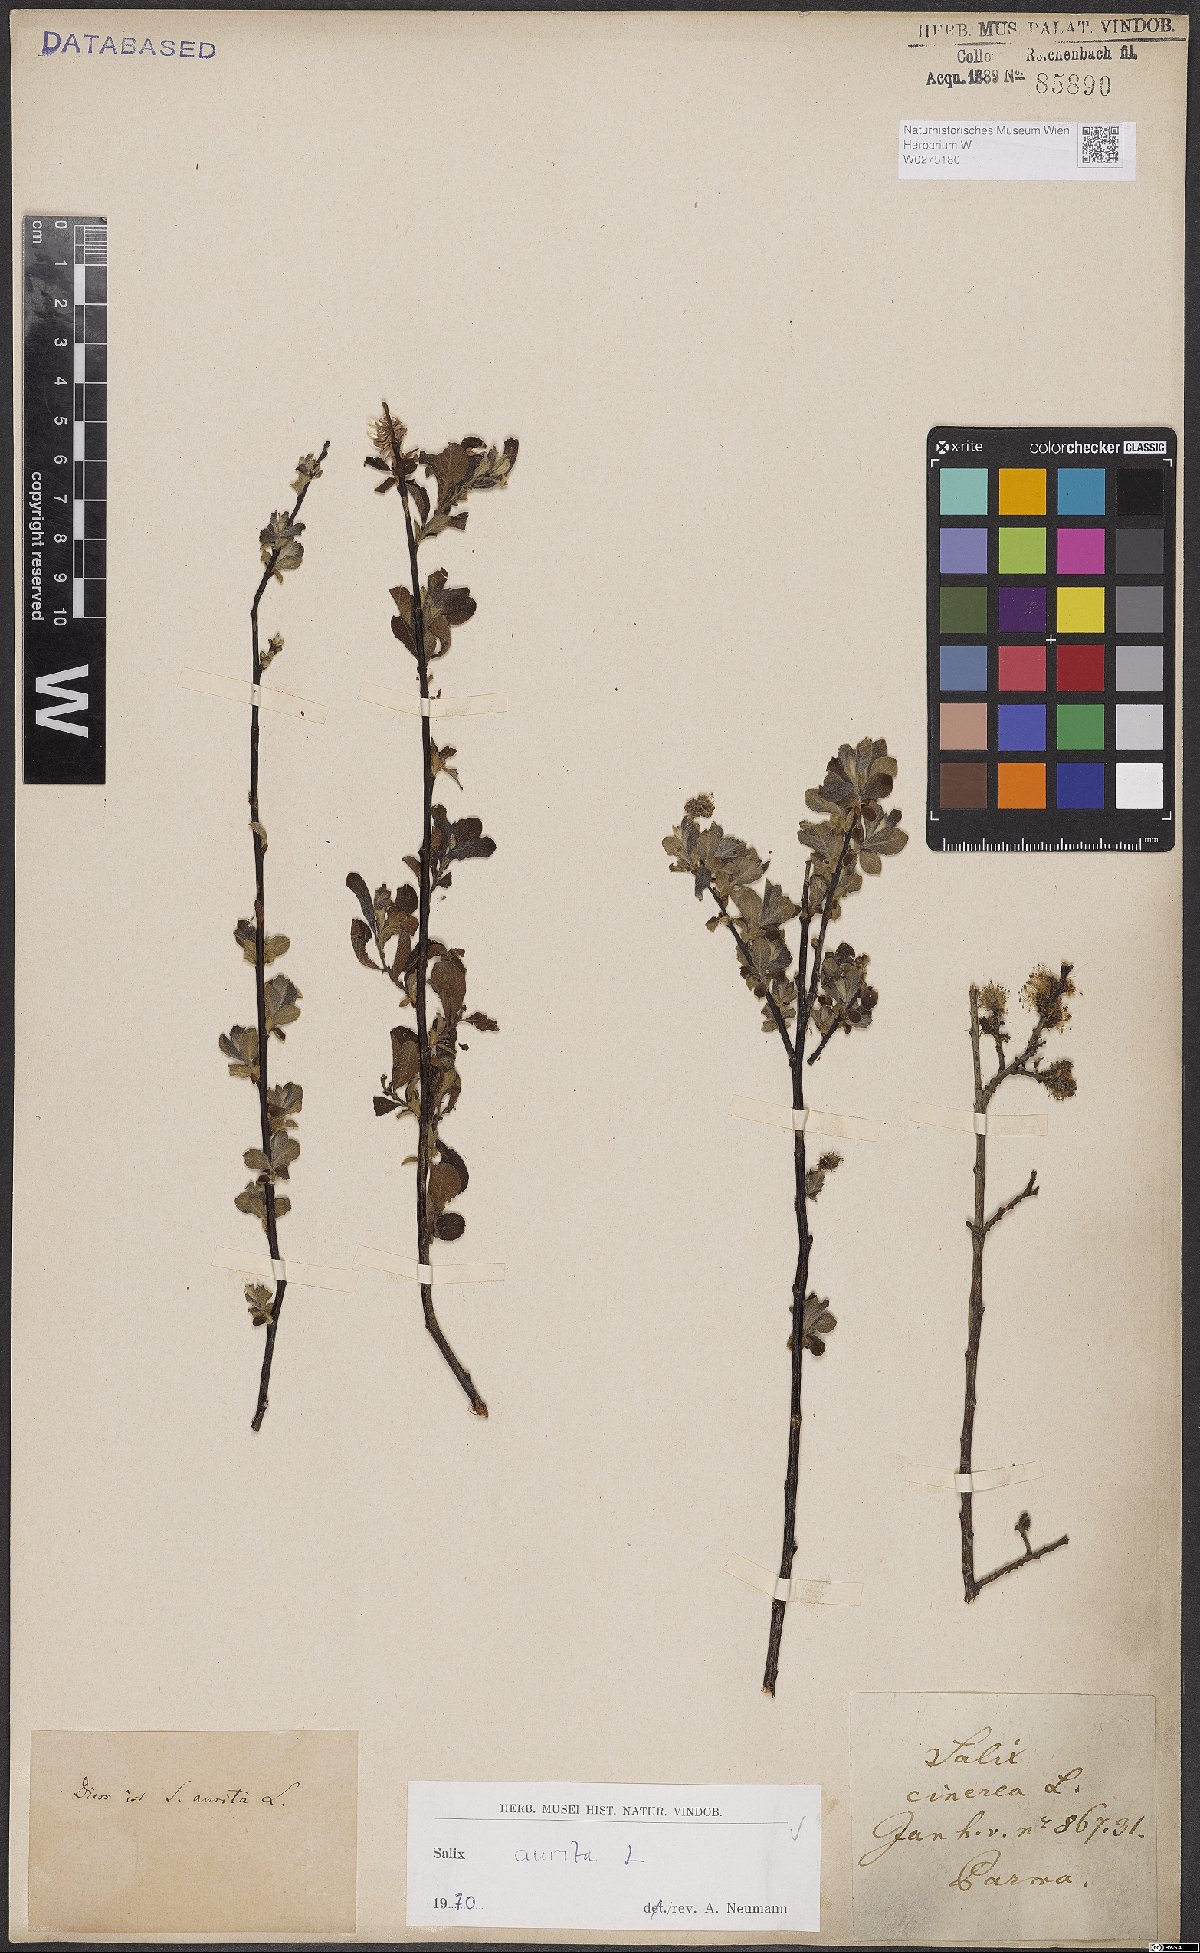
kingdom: Plantae
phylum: Tracheophyta
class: Magnoliopsida
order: Malpighiales
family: Salicaceae
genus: Salix
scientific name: Salix aurita
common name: Eared willow
